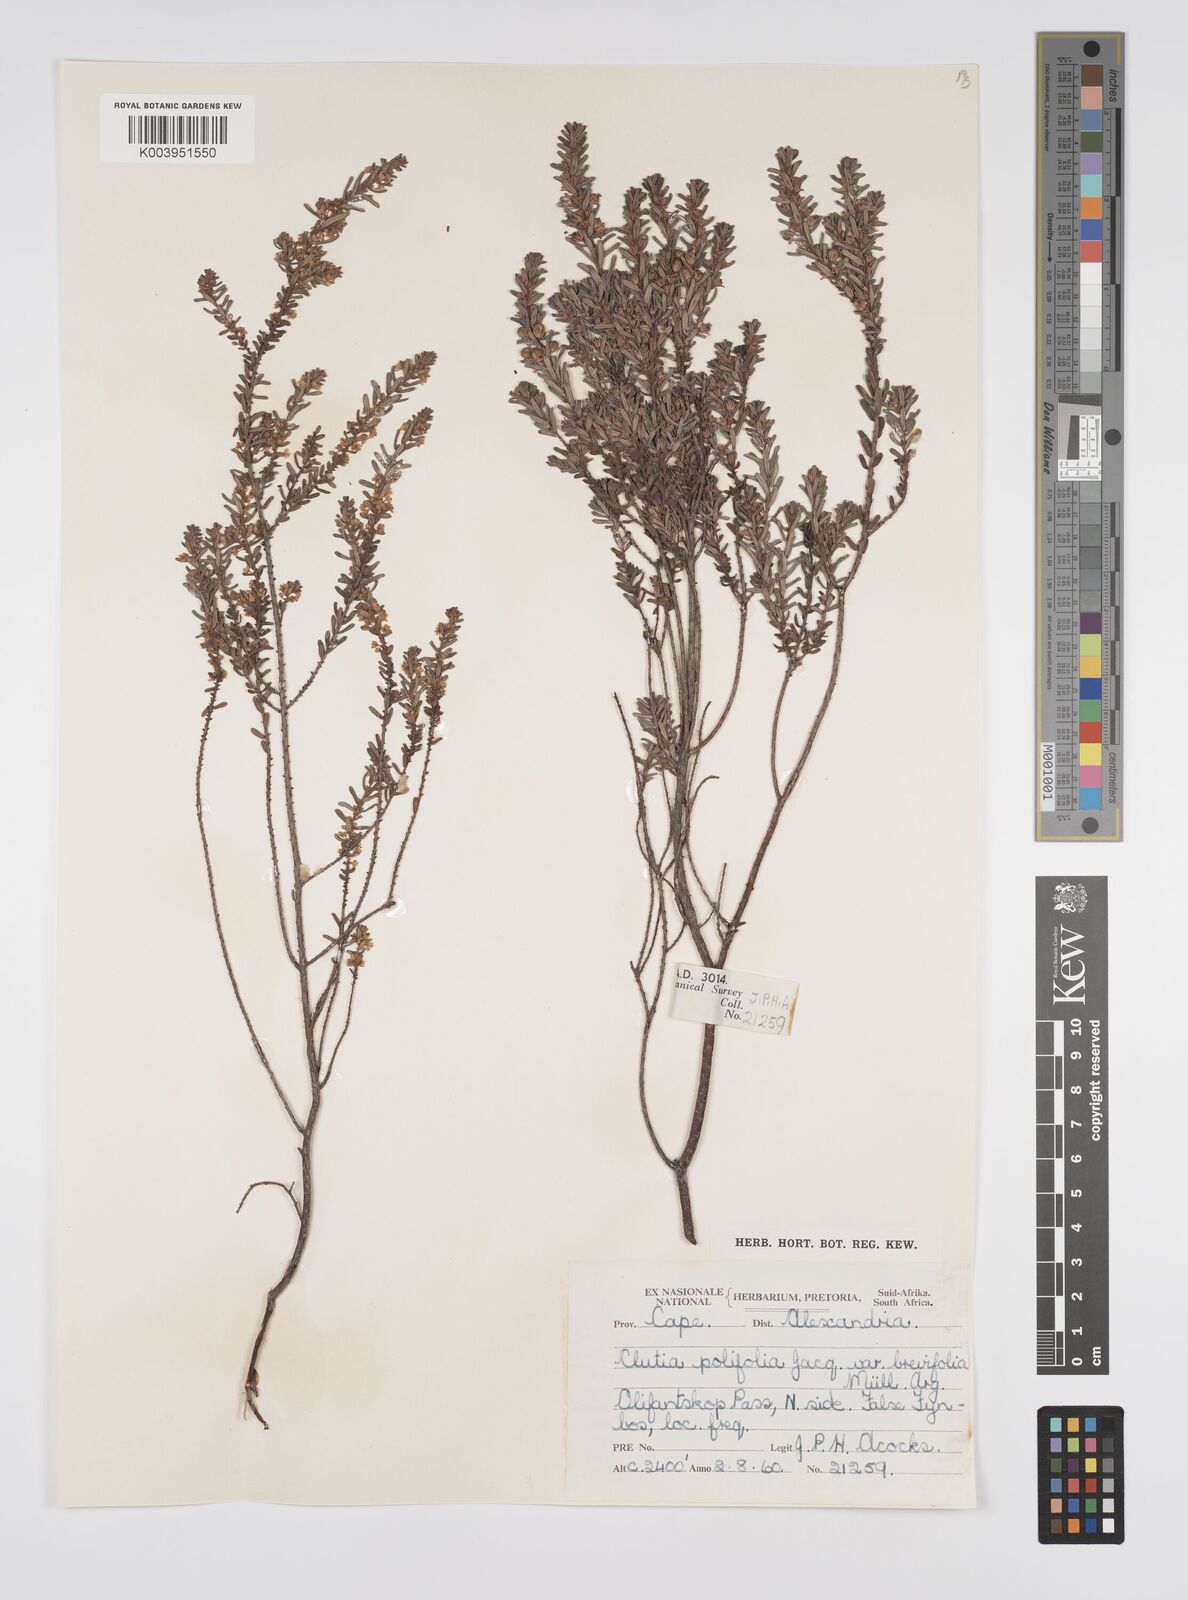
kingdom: Plantae
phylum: Tracheophyta
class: Magnoliopsida
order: Malpighiales
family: Peraceae
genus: Clutia
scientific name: Clutia
